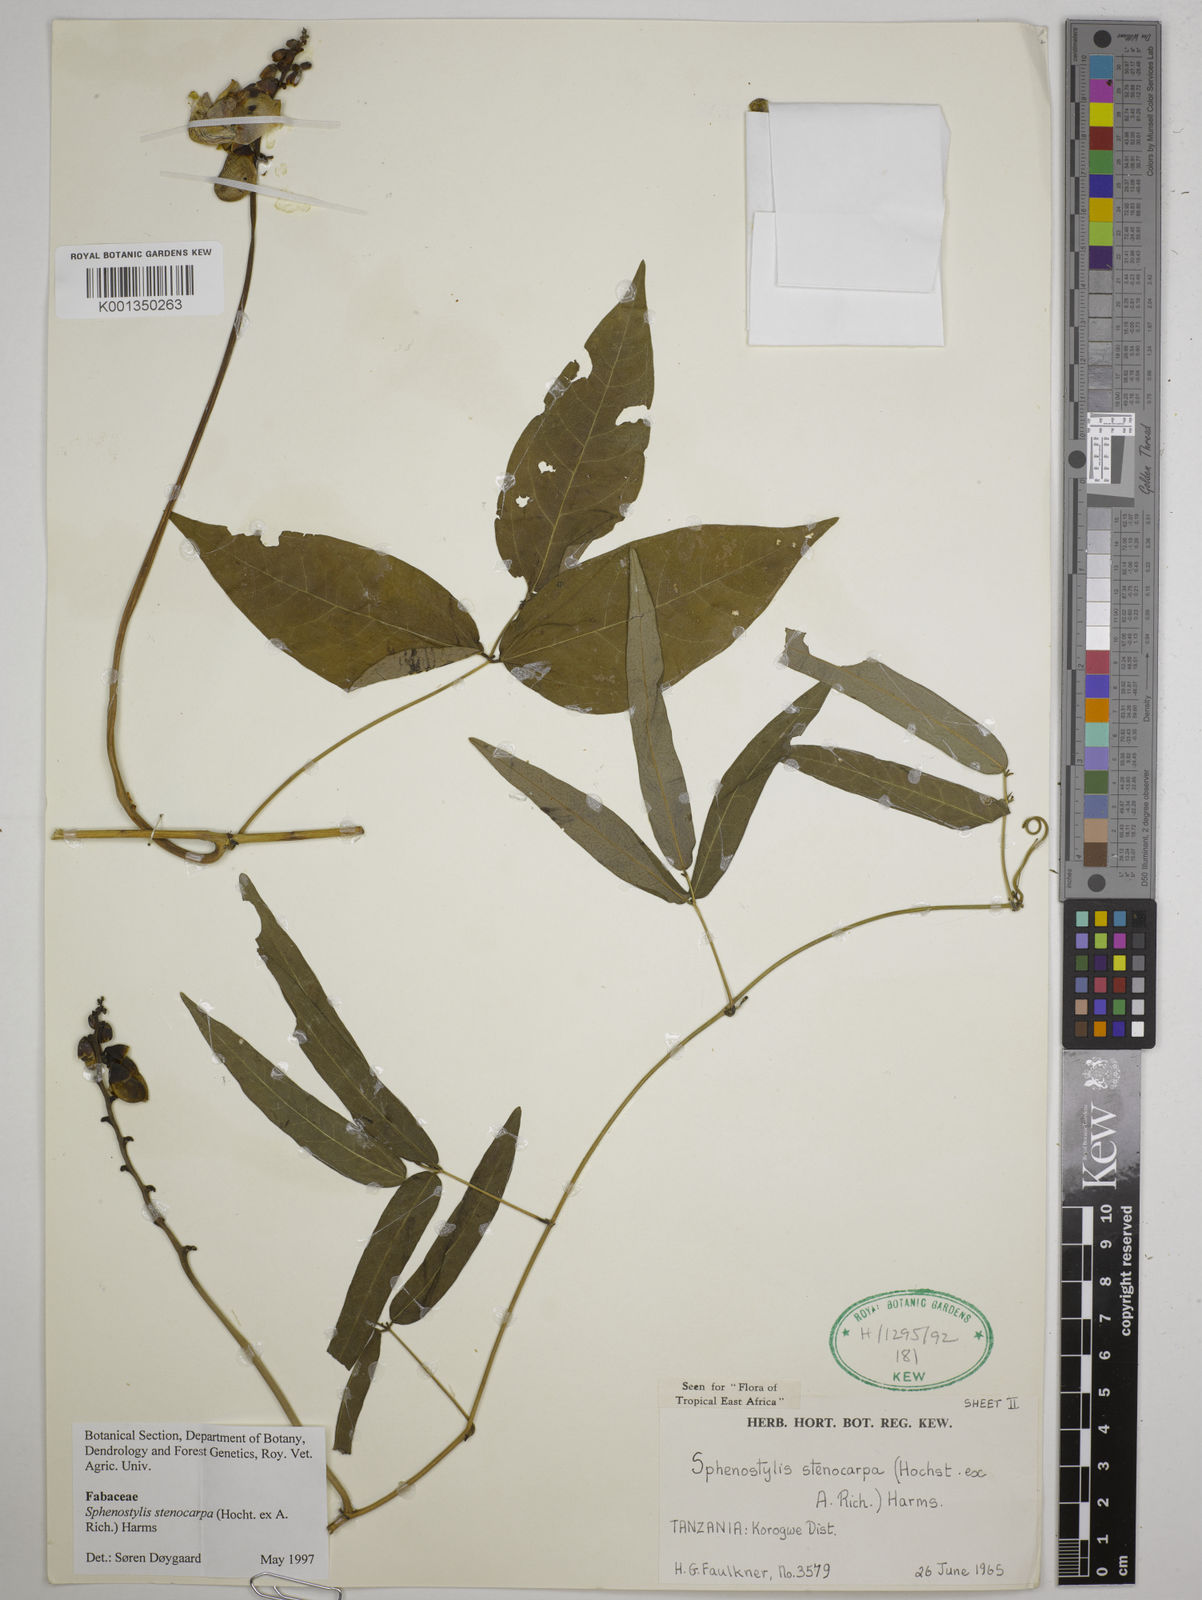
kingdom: Plantae
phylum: Tracheophyta
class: Magnoliopsida
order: Fabales
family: Fabaceae
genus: Sphenostylis
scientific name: Sphenostylis stenocarpa
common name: Yam-pea
